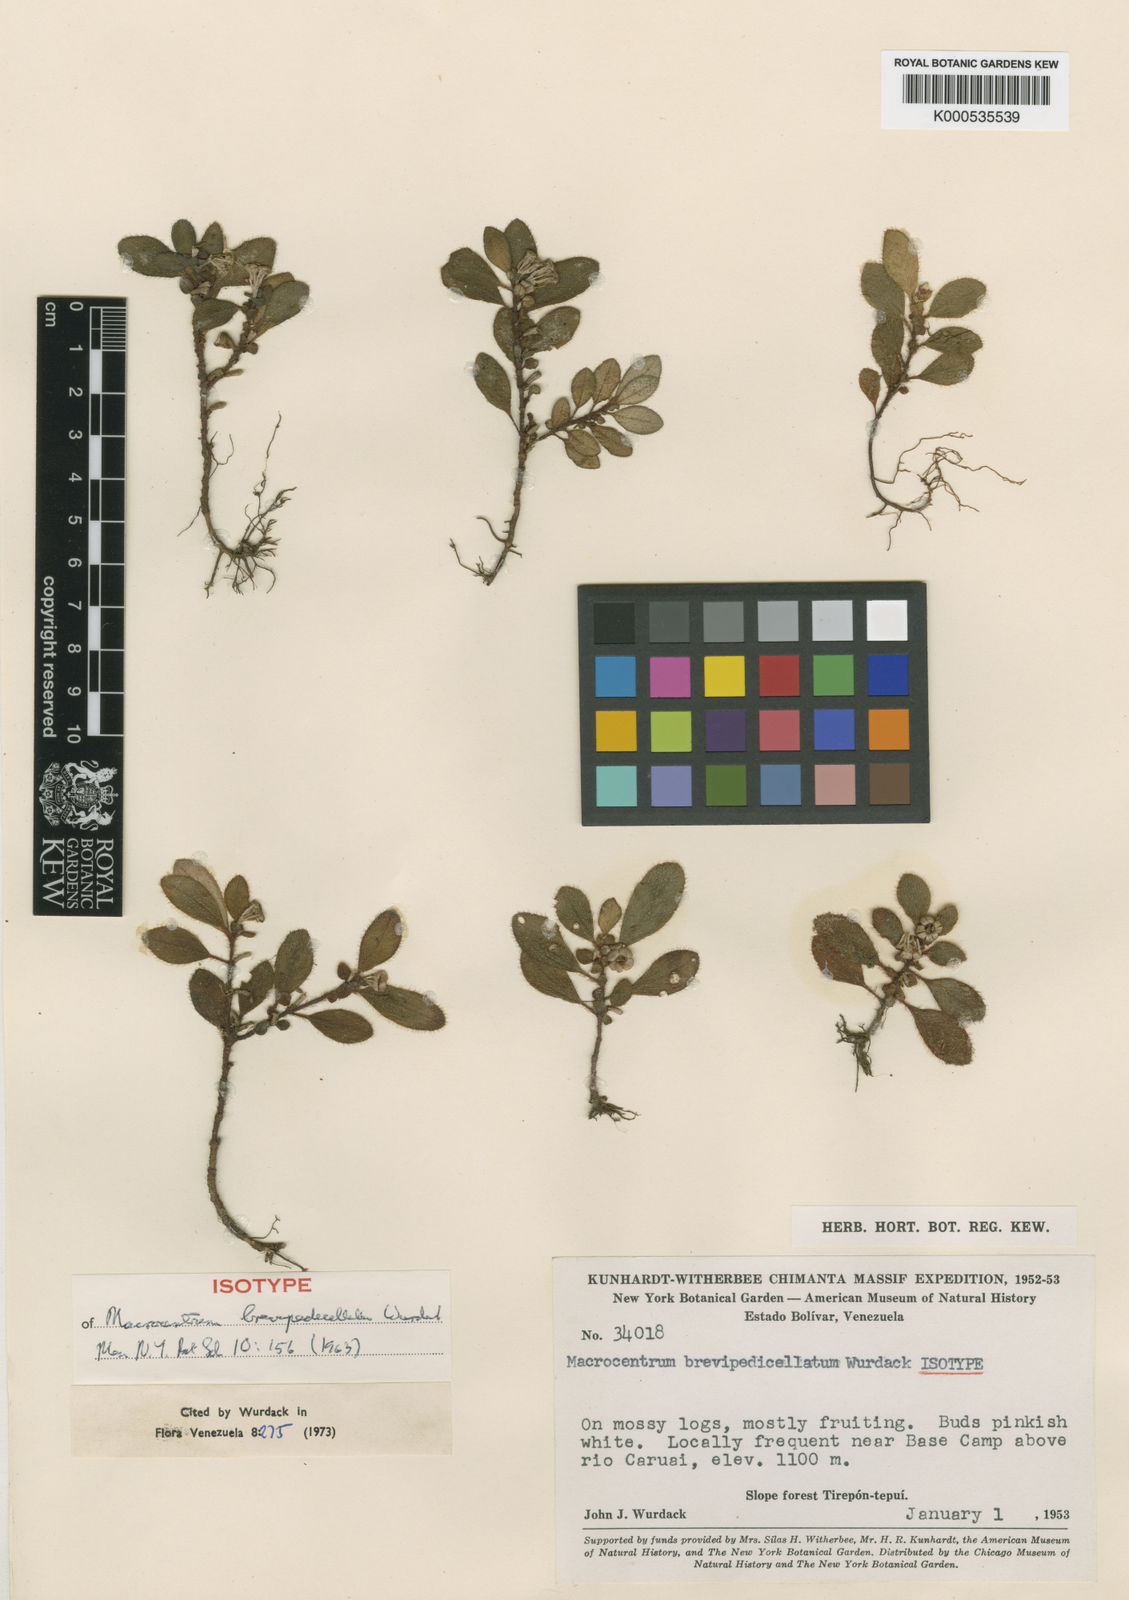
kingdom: Plantae
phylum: Tracheophyta
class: Magnoliopsida
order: Myrtales
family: Melastomataceae
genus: Macrocentrum
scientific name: Macrocentrum brevipedicellatum
